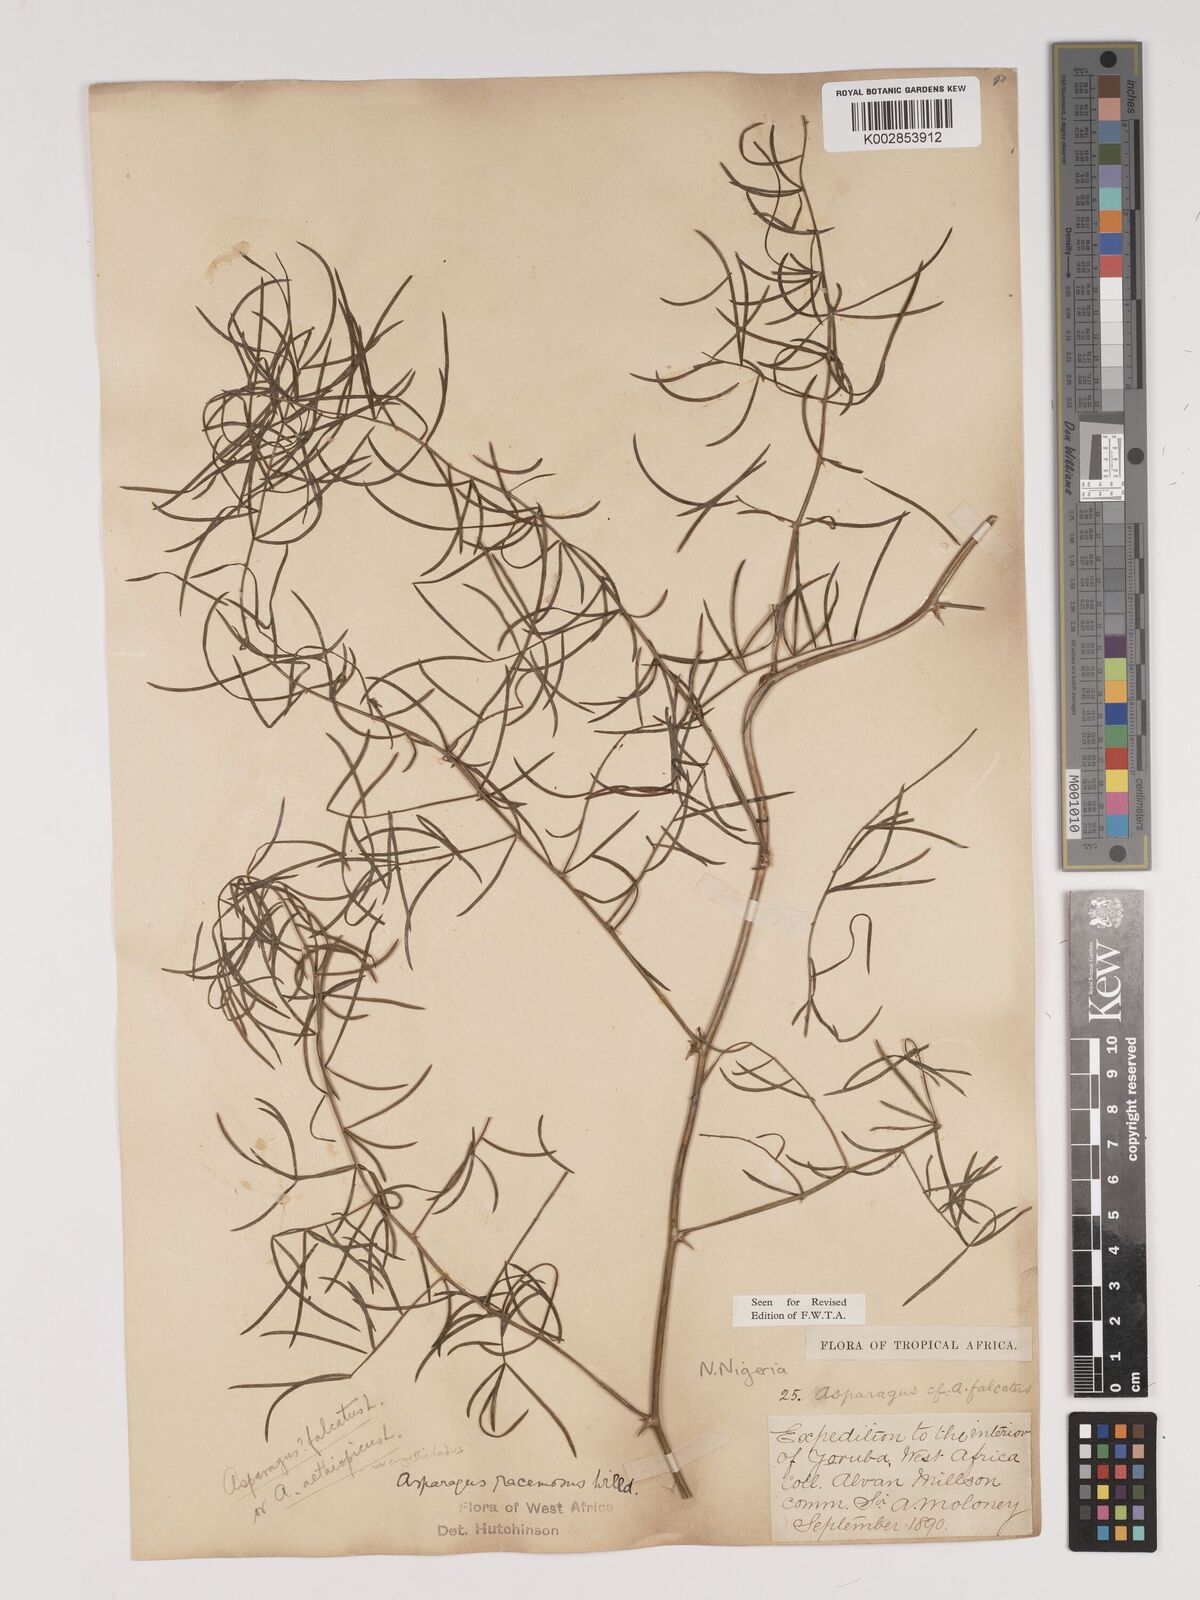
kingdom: Plantae
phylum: Tracheophyta
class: Liliopsida
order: Asparagales
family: Asparagaceae
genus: Asparagus
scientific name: Asparagus warneckei
